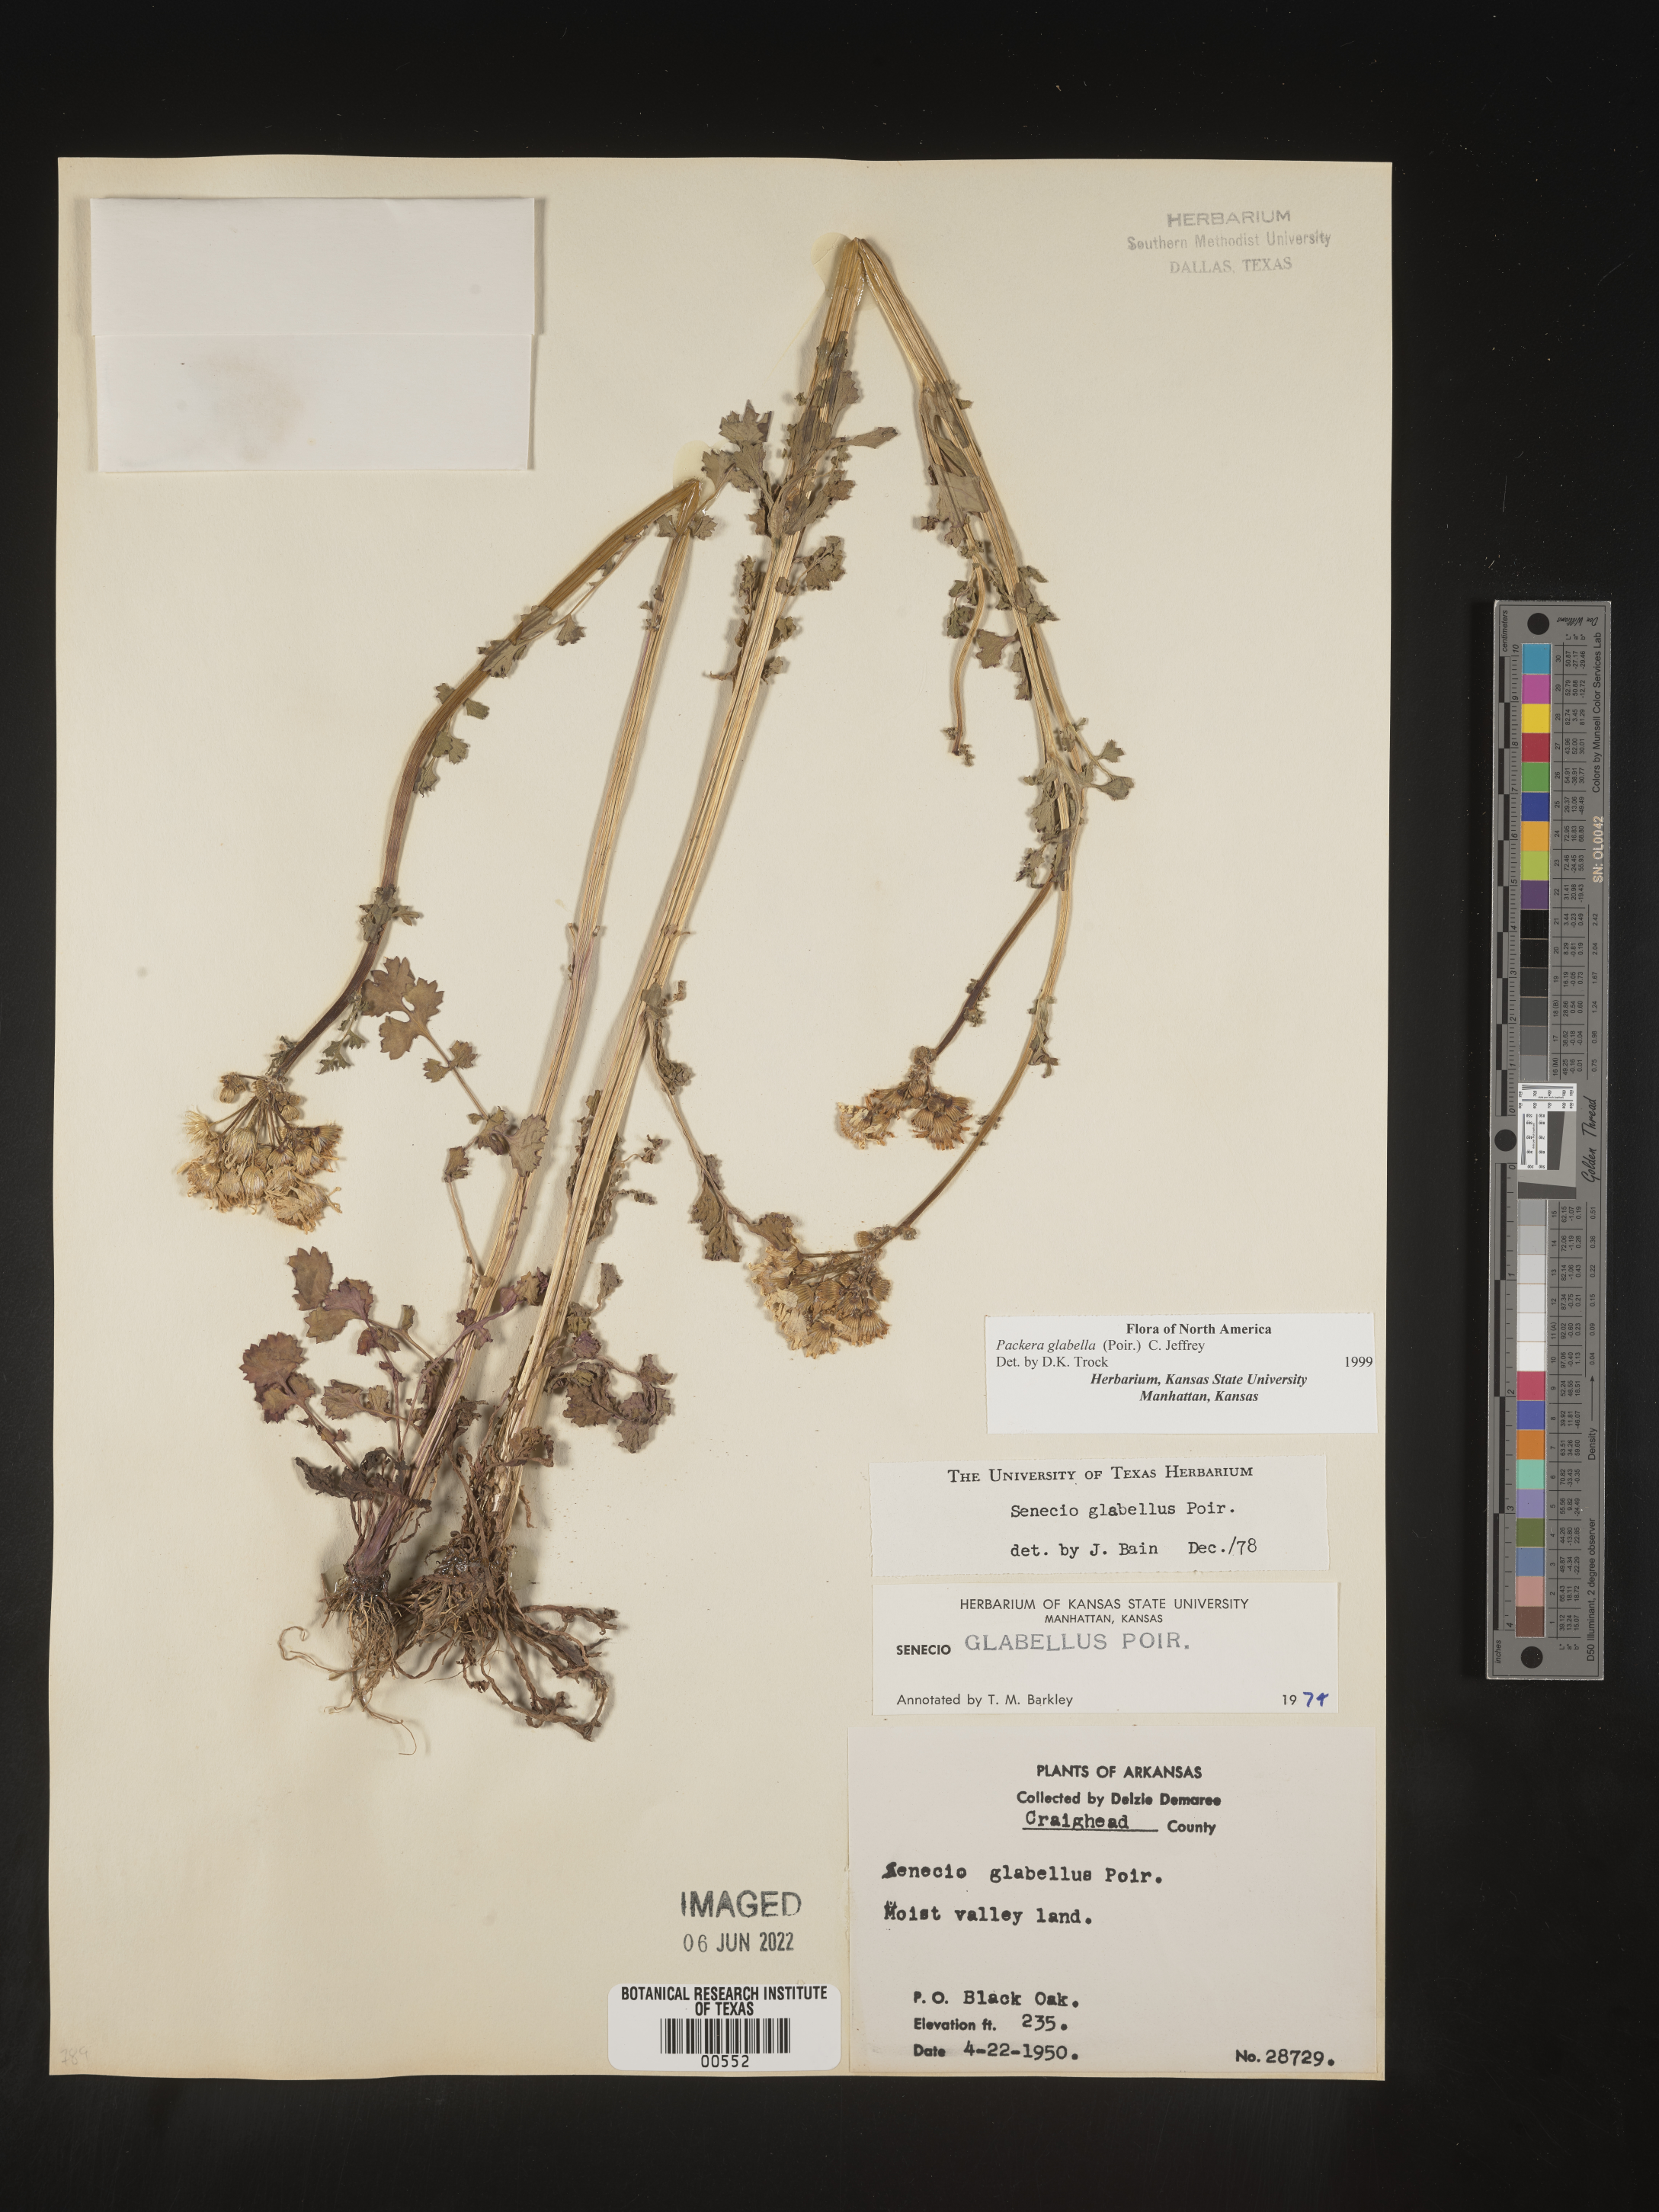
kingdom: Plantae
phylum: Tracheophyta
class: Magnoliopsida
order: Asterales
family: Asteraceae
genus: Packera
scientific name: Packera glabella
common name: Butterweed
